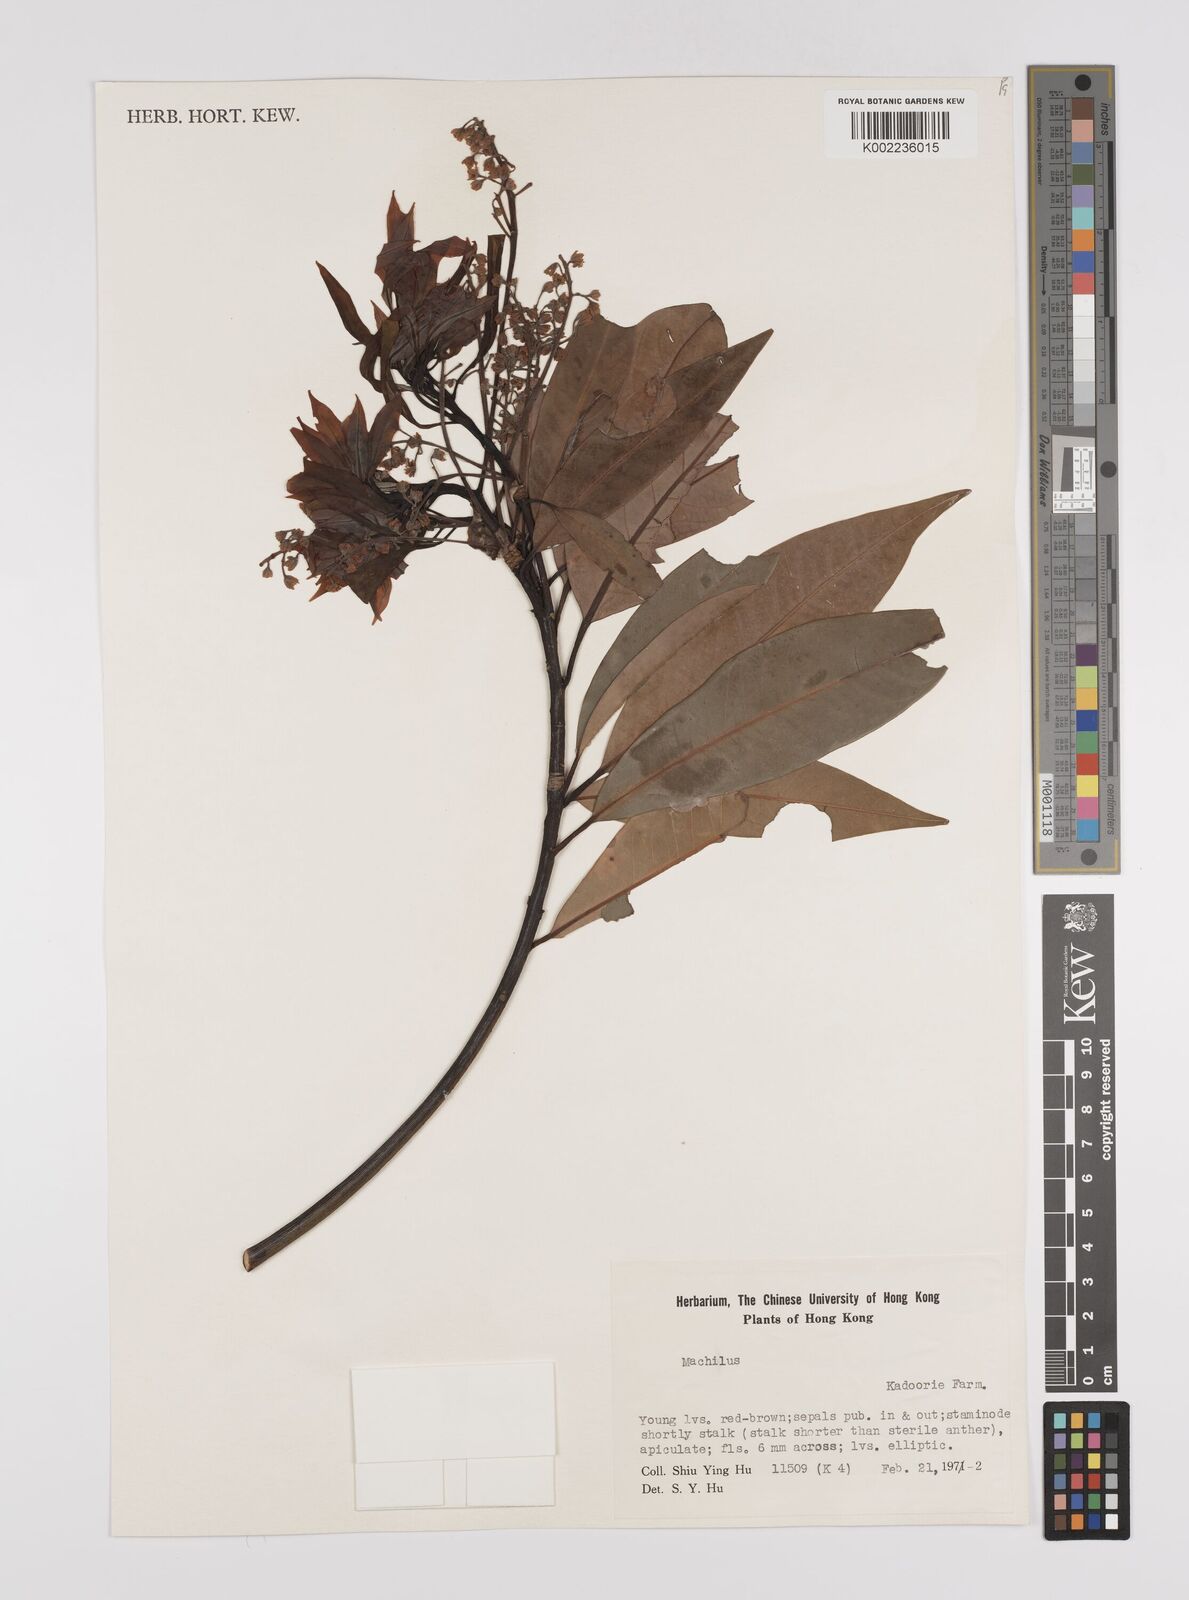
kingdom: Plantae
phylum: Tracheophyta
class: Magnoliopsida
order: Laurales
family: Lauraceae
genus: Persea
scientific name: Persea
